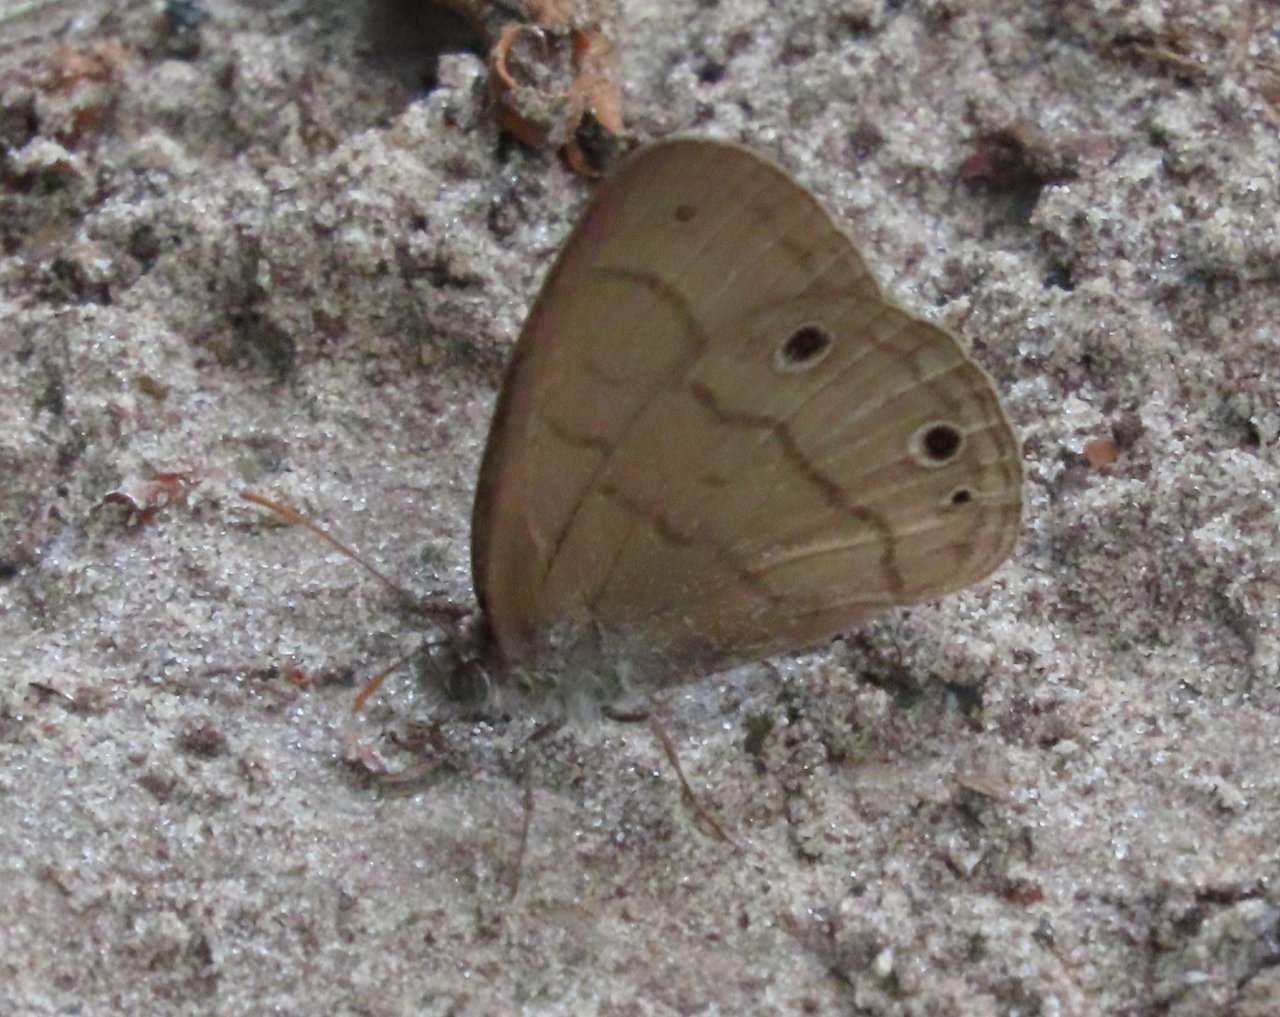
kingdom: Animalia
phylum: Arthropoda
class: Insecta
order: Lepidoptera
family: Nymphalidae
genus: Hermeuptychia
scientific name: Hermeuptychia hermes
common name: Carolina Satyr
